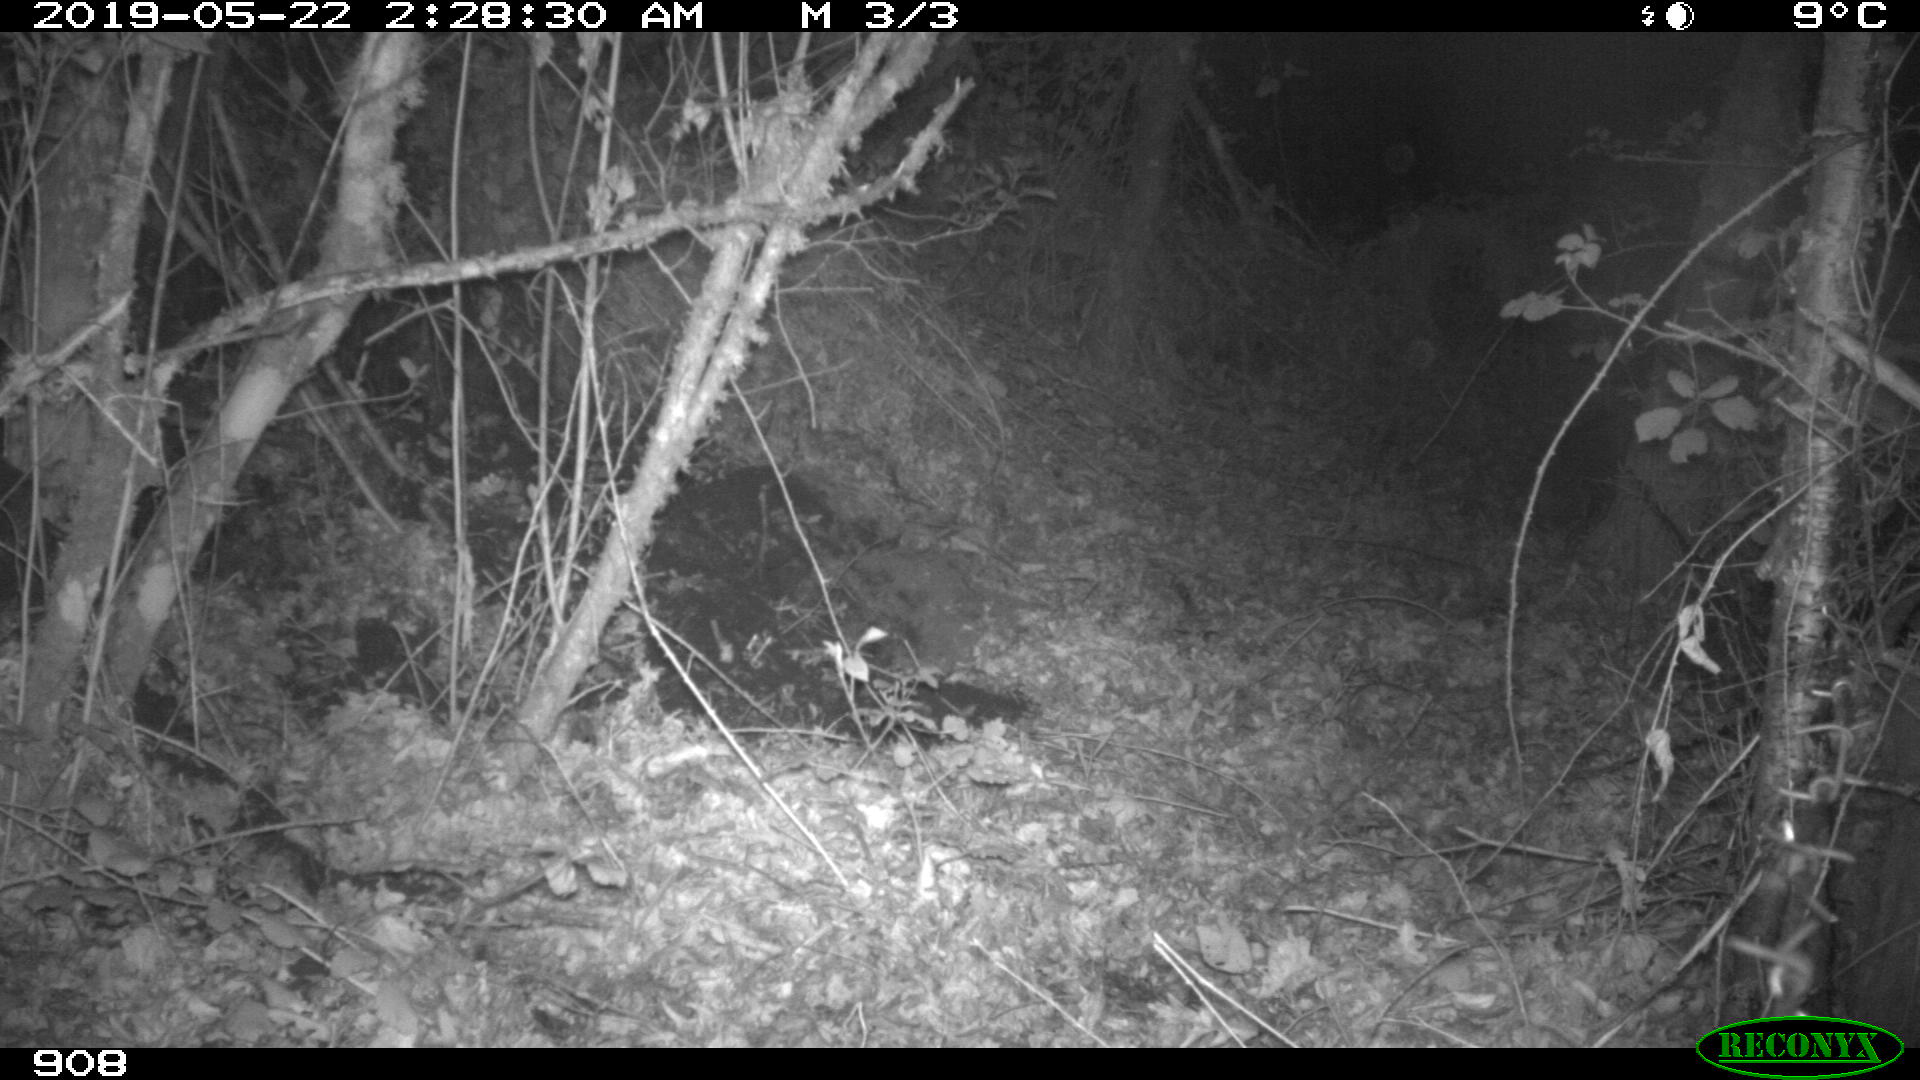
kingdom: Animalia
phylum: Chordata
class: Mammalia
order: Artiodactyla
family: Suidae
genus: Sus
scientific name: Sus scrofa
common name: Wild boar
